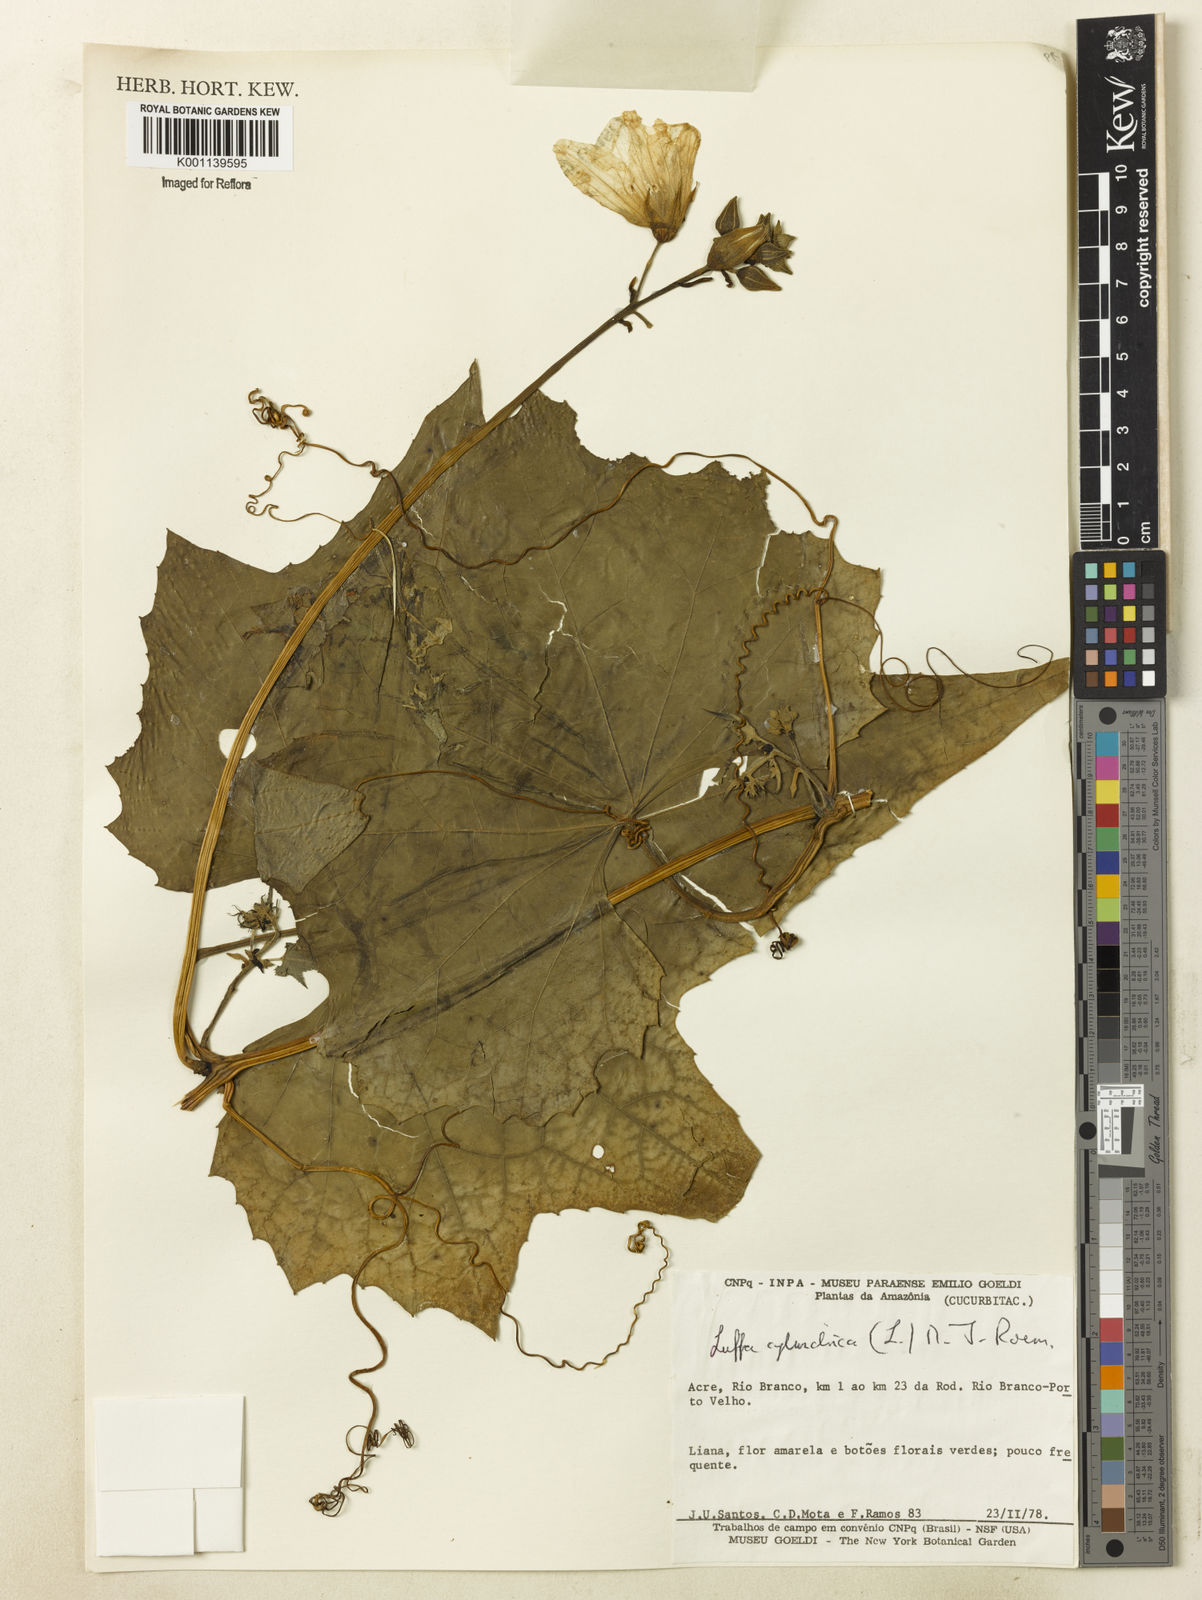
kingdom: Plantae
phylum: Tracheophyta
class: Magnoliopsida
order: Cucurbitales
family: Cucurbitaceae
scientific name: Cucurbitaceae
